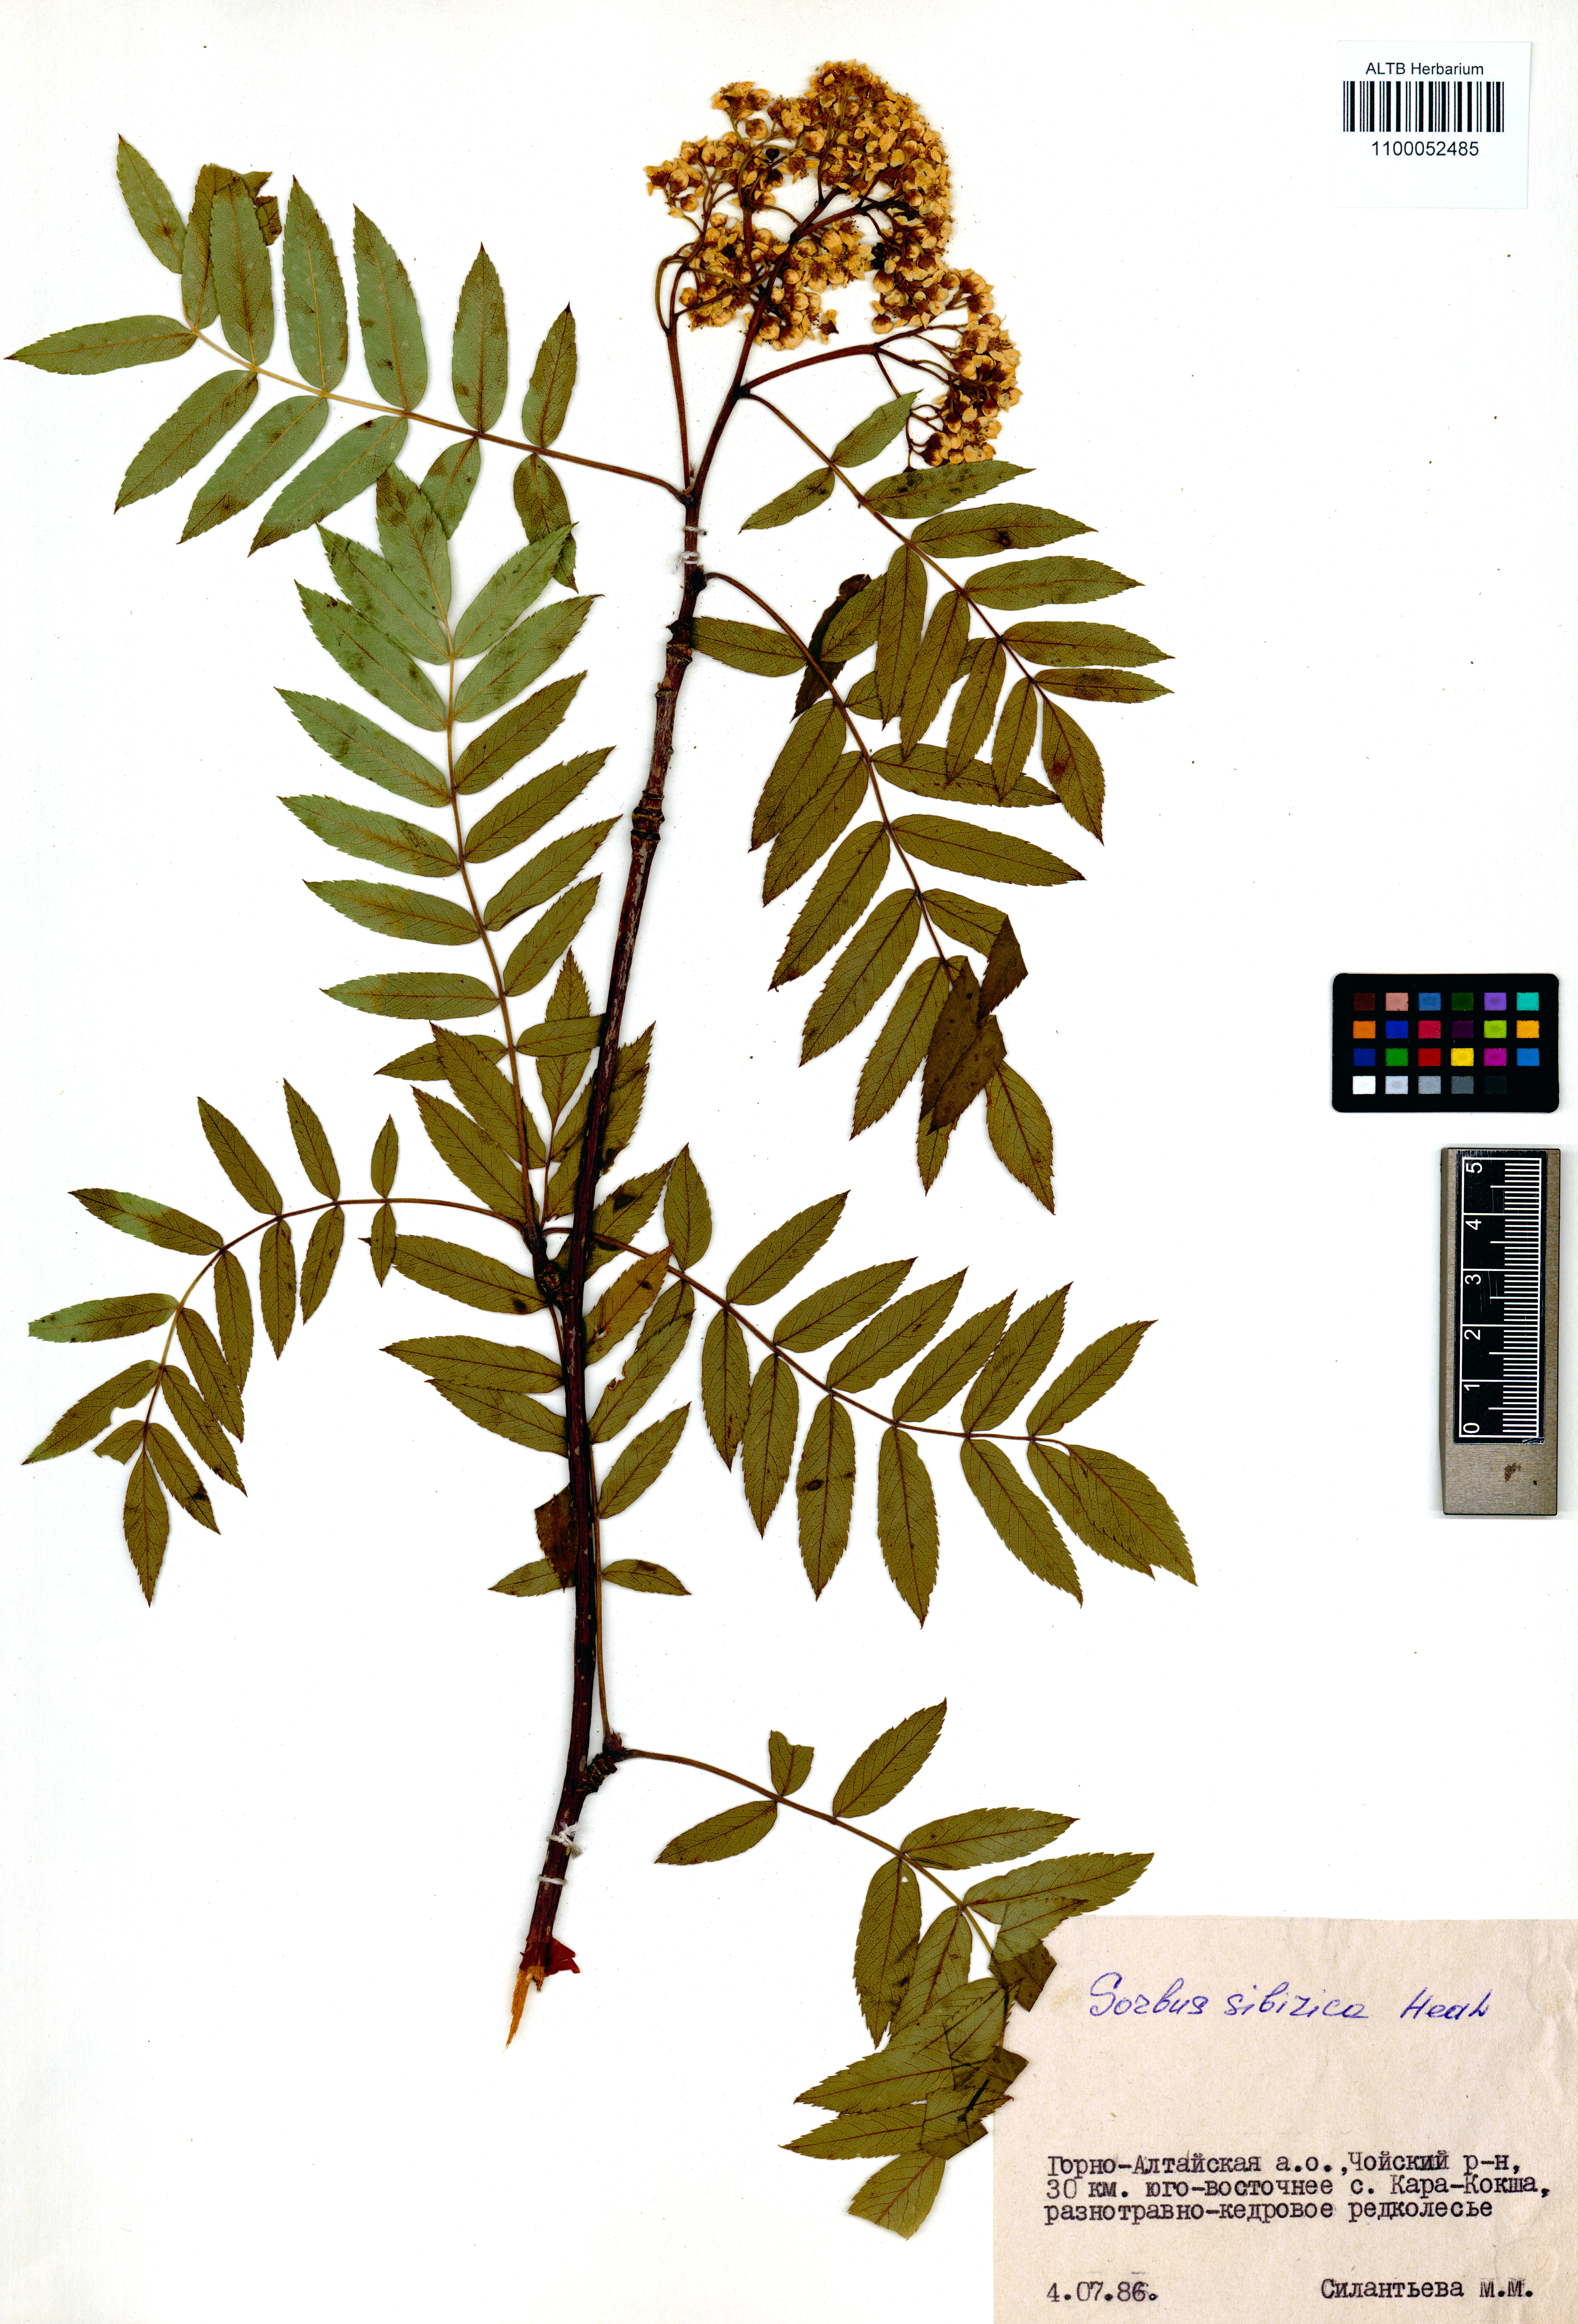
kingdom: Plantae
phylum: Tracheophyta
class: Magnoliopsida
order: Rosales
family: Rosaceae
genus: Sorbus
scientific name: Sorbus aucuparia
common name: Rowan
